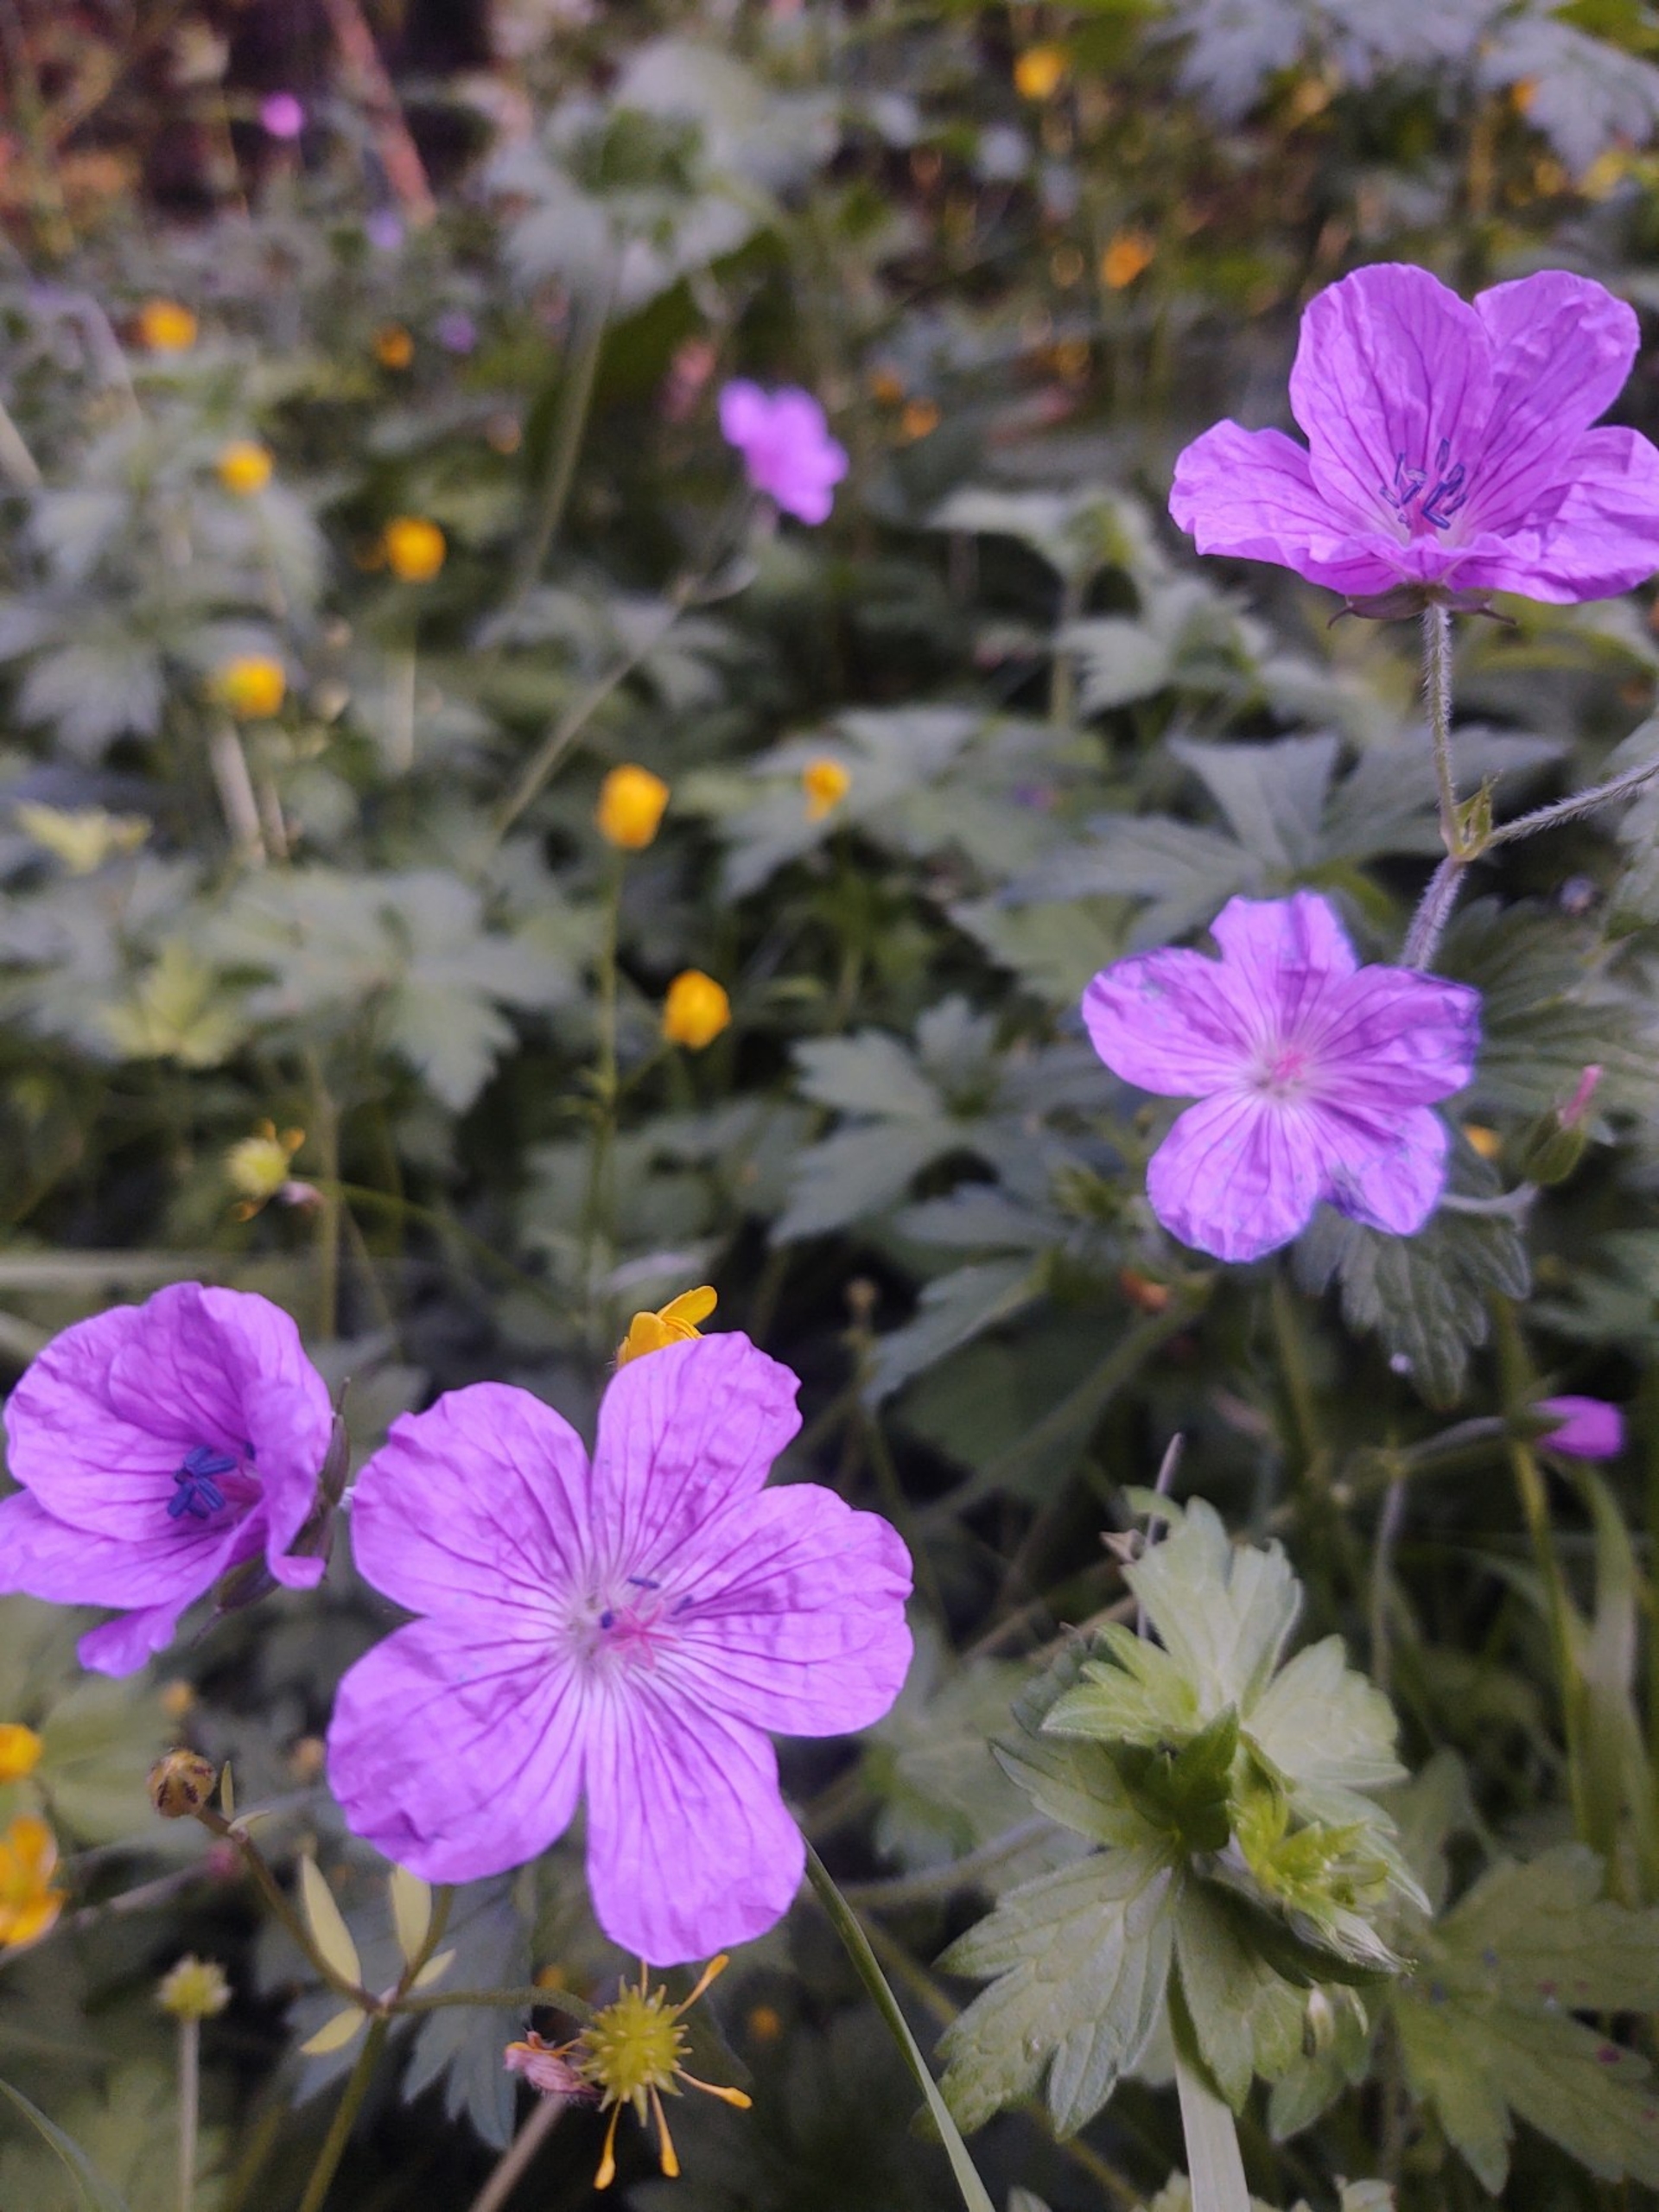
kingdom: Plantae
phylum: Tracheophyta
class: Magnoliopsida
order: Geraniales
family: Geraniaceae
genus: Geranium
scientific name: Geranium palustre
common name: Kær-storkenæb
